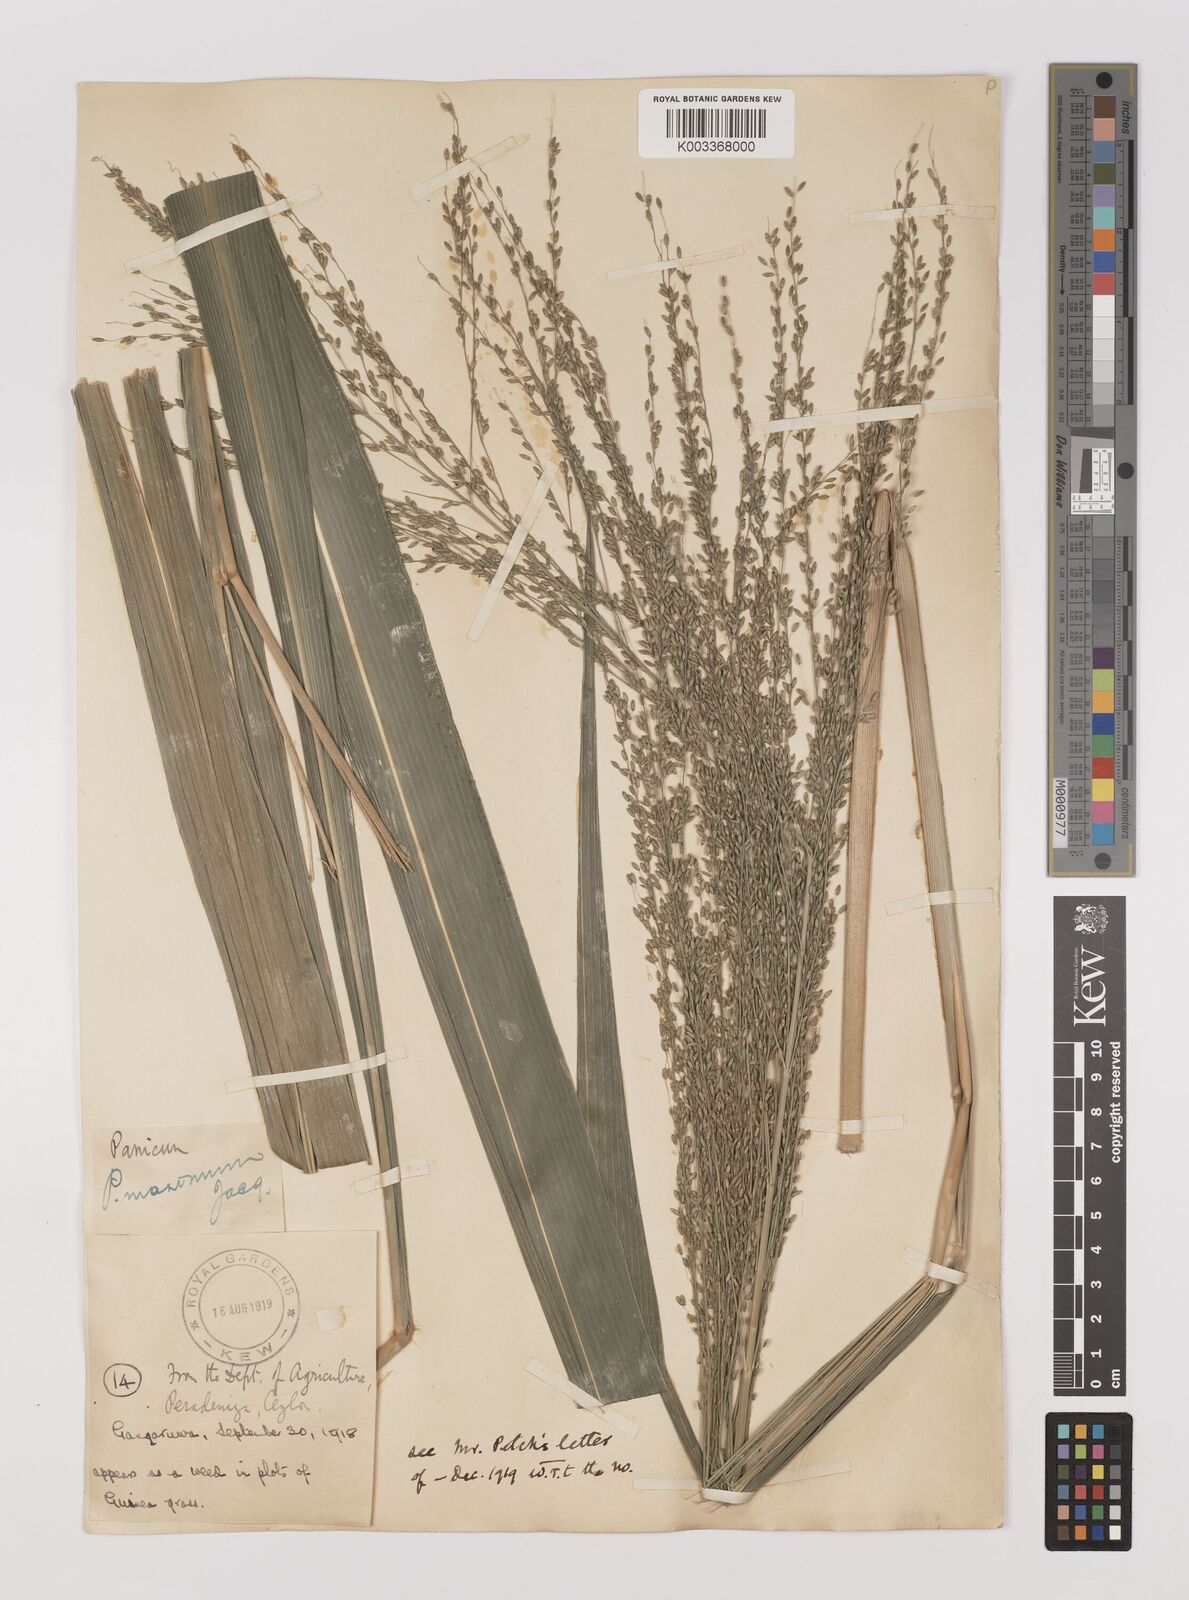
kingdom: Plantae
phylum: Tracheophyta
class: Liliopsida
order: Poales
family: Poaceae
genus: Megathyrsus
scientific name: Megathyrsus maximus
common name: Guineagrass
